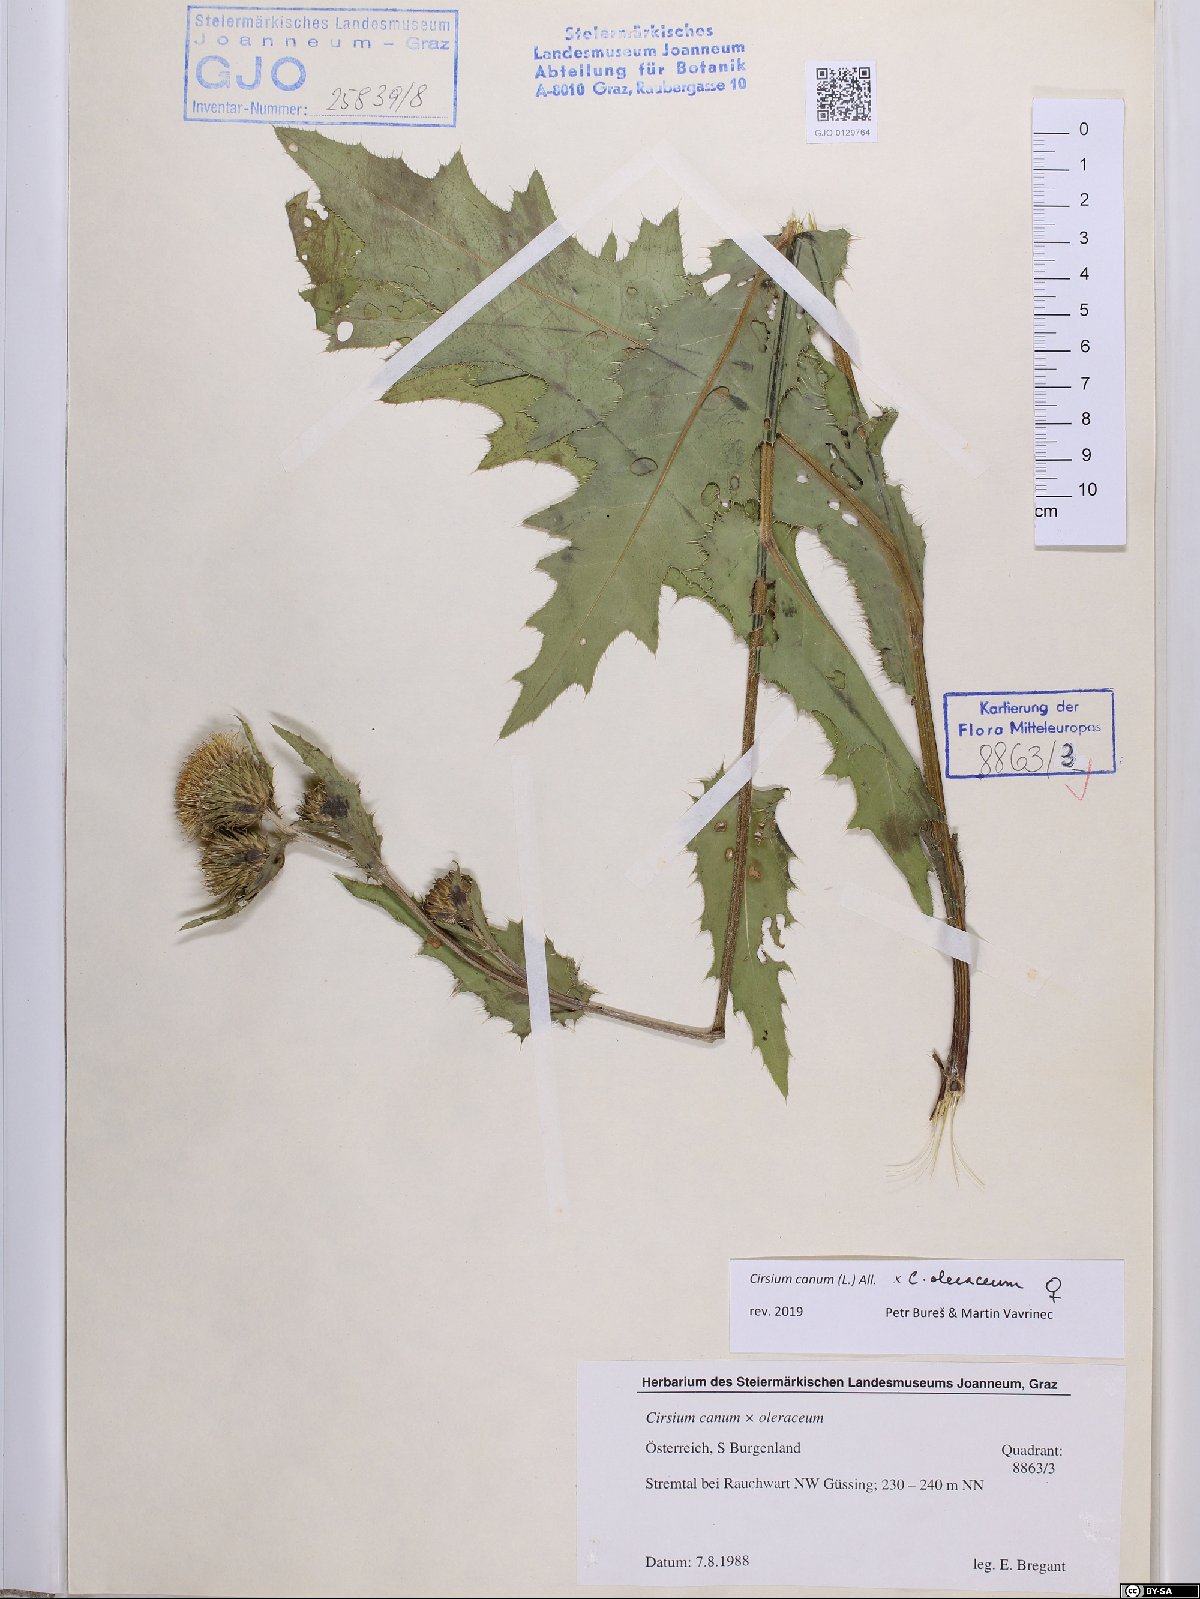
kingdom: Plantae
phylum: Tracheophyta
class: Magnoliopsida
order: Asterales
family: Asteraceae
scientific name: Asteraceae
